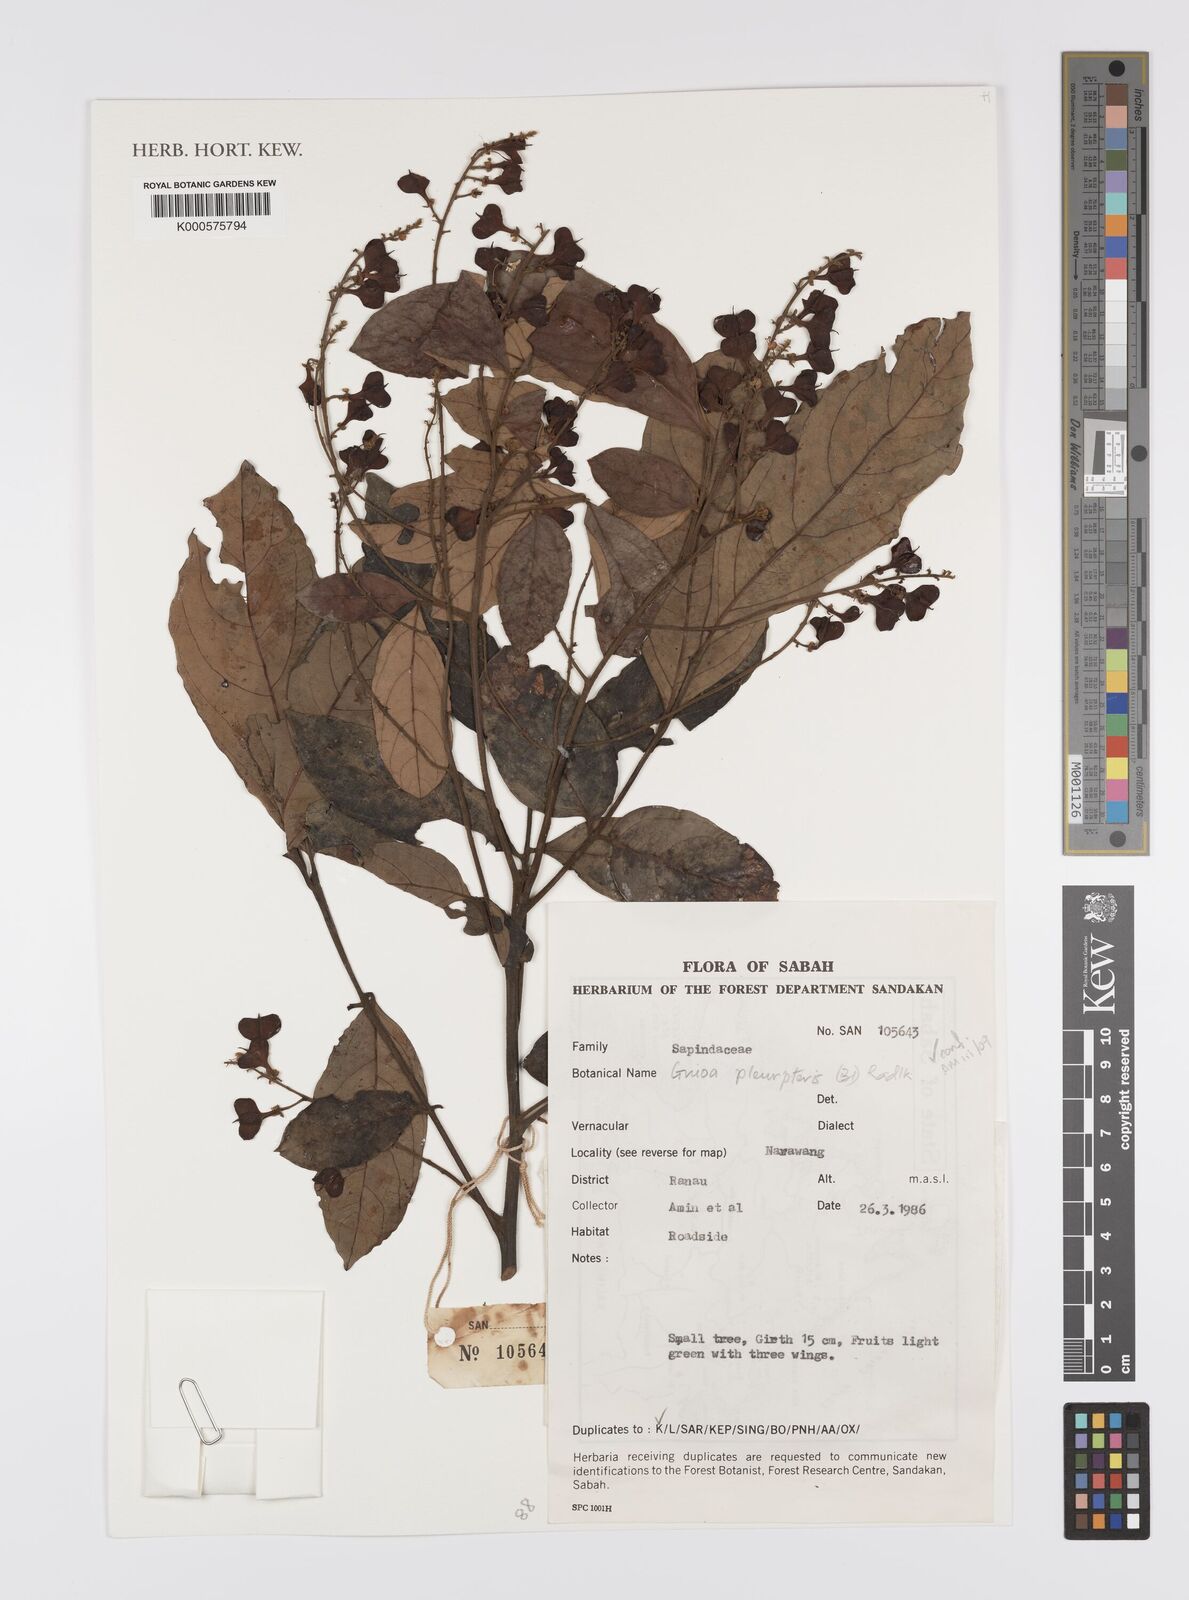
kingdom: Plantae
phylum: Tracheophyta
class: Magnoliopsida
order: Sapindales
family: Sapindaceae
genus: Guioa
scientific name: Guioa pleuropteris
